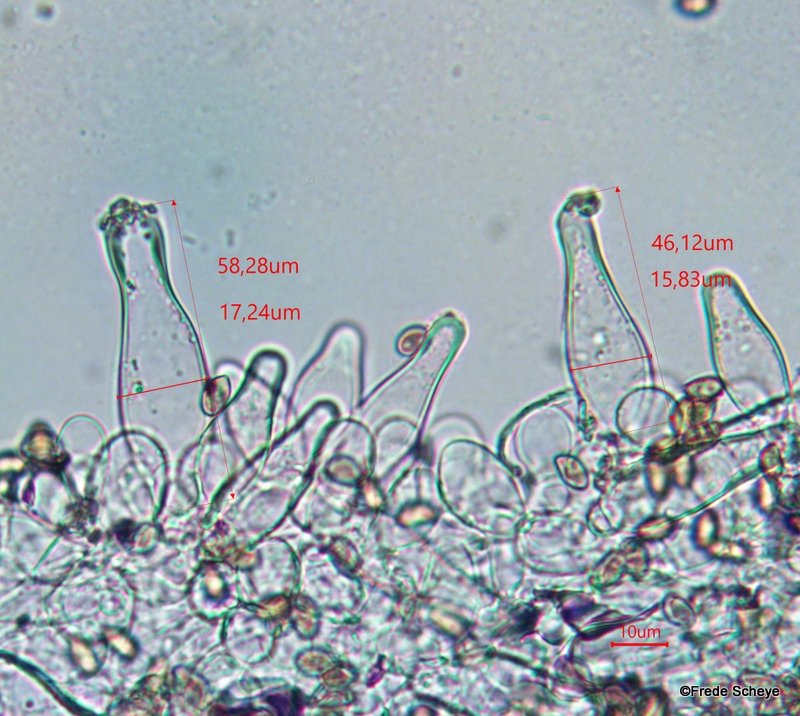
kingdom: Fungi
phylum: Basidiomycota
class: Agaricomycetes
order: Agaricales
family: Inocybaceae
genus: Inocybe
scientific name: Inocybe
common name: almindelig trævlhat
